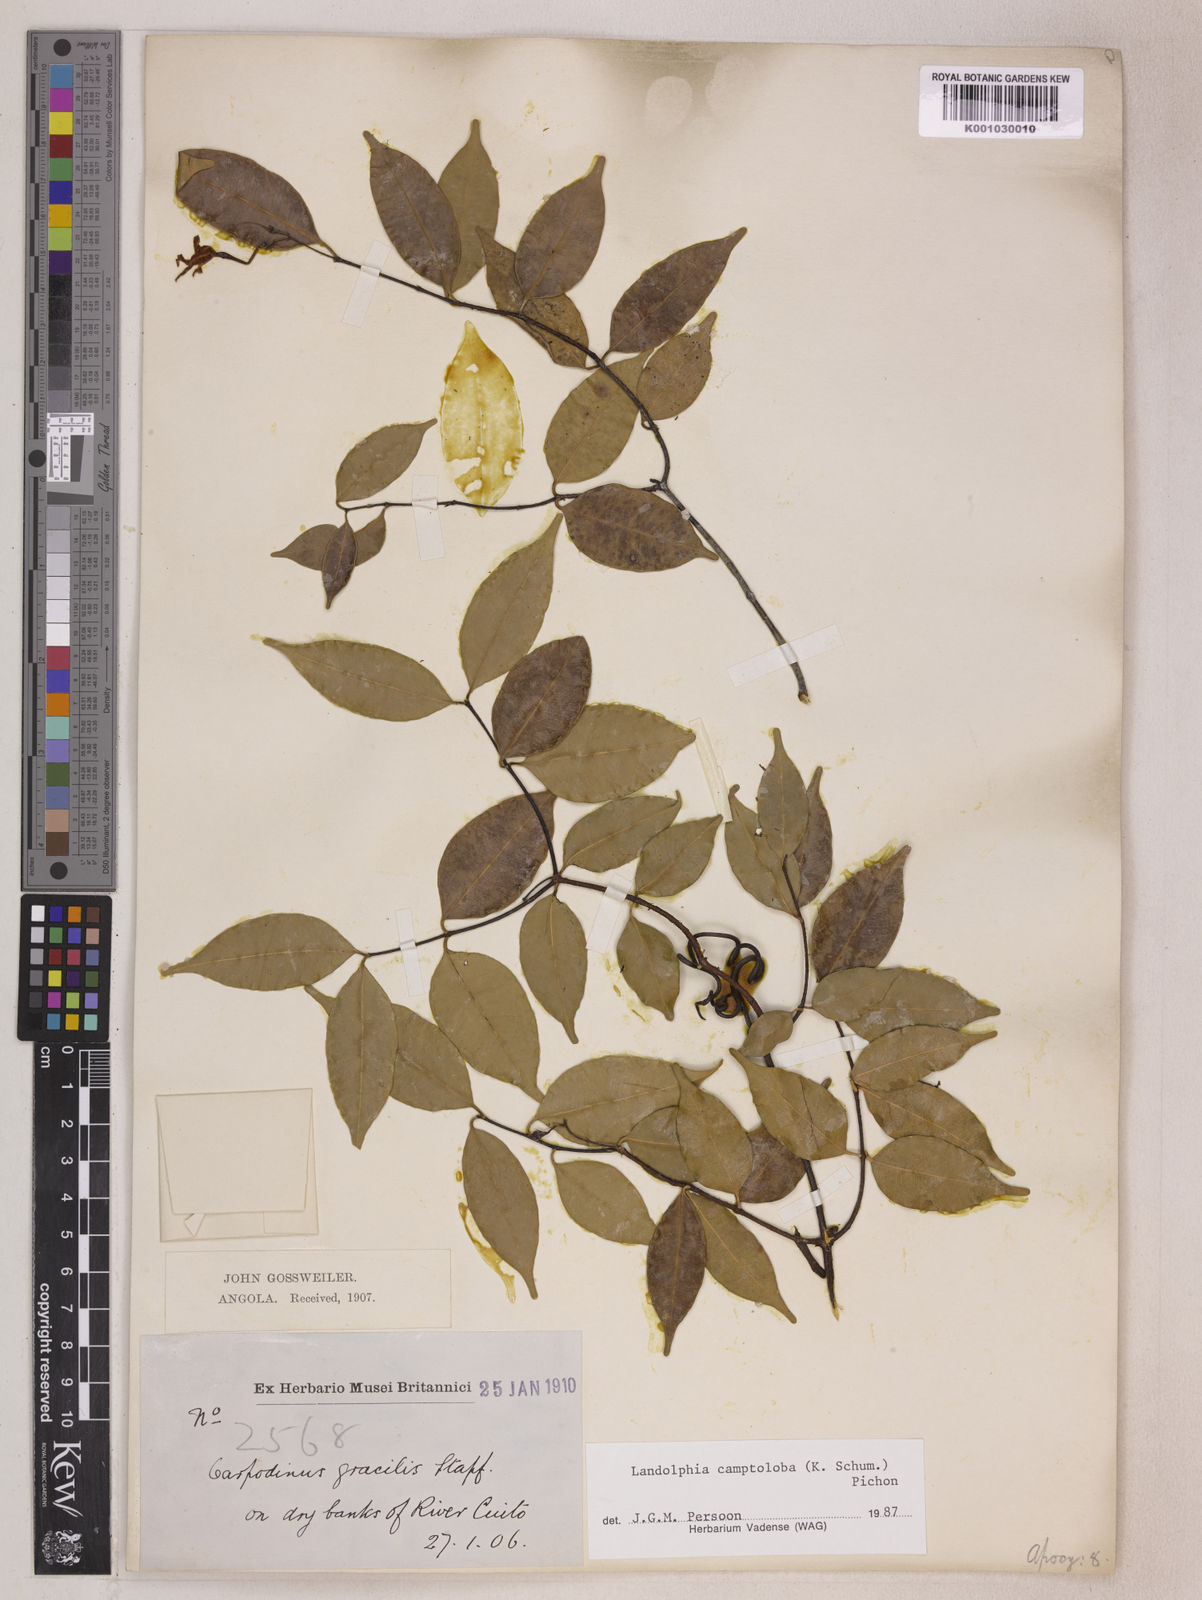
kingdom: Plantae
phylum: Tracheophyta
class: Magnoliopsida
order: Gentianales
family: Apocynaceae
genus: Landolphia
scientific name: Landolphia camptoloba
